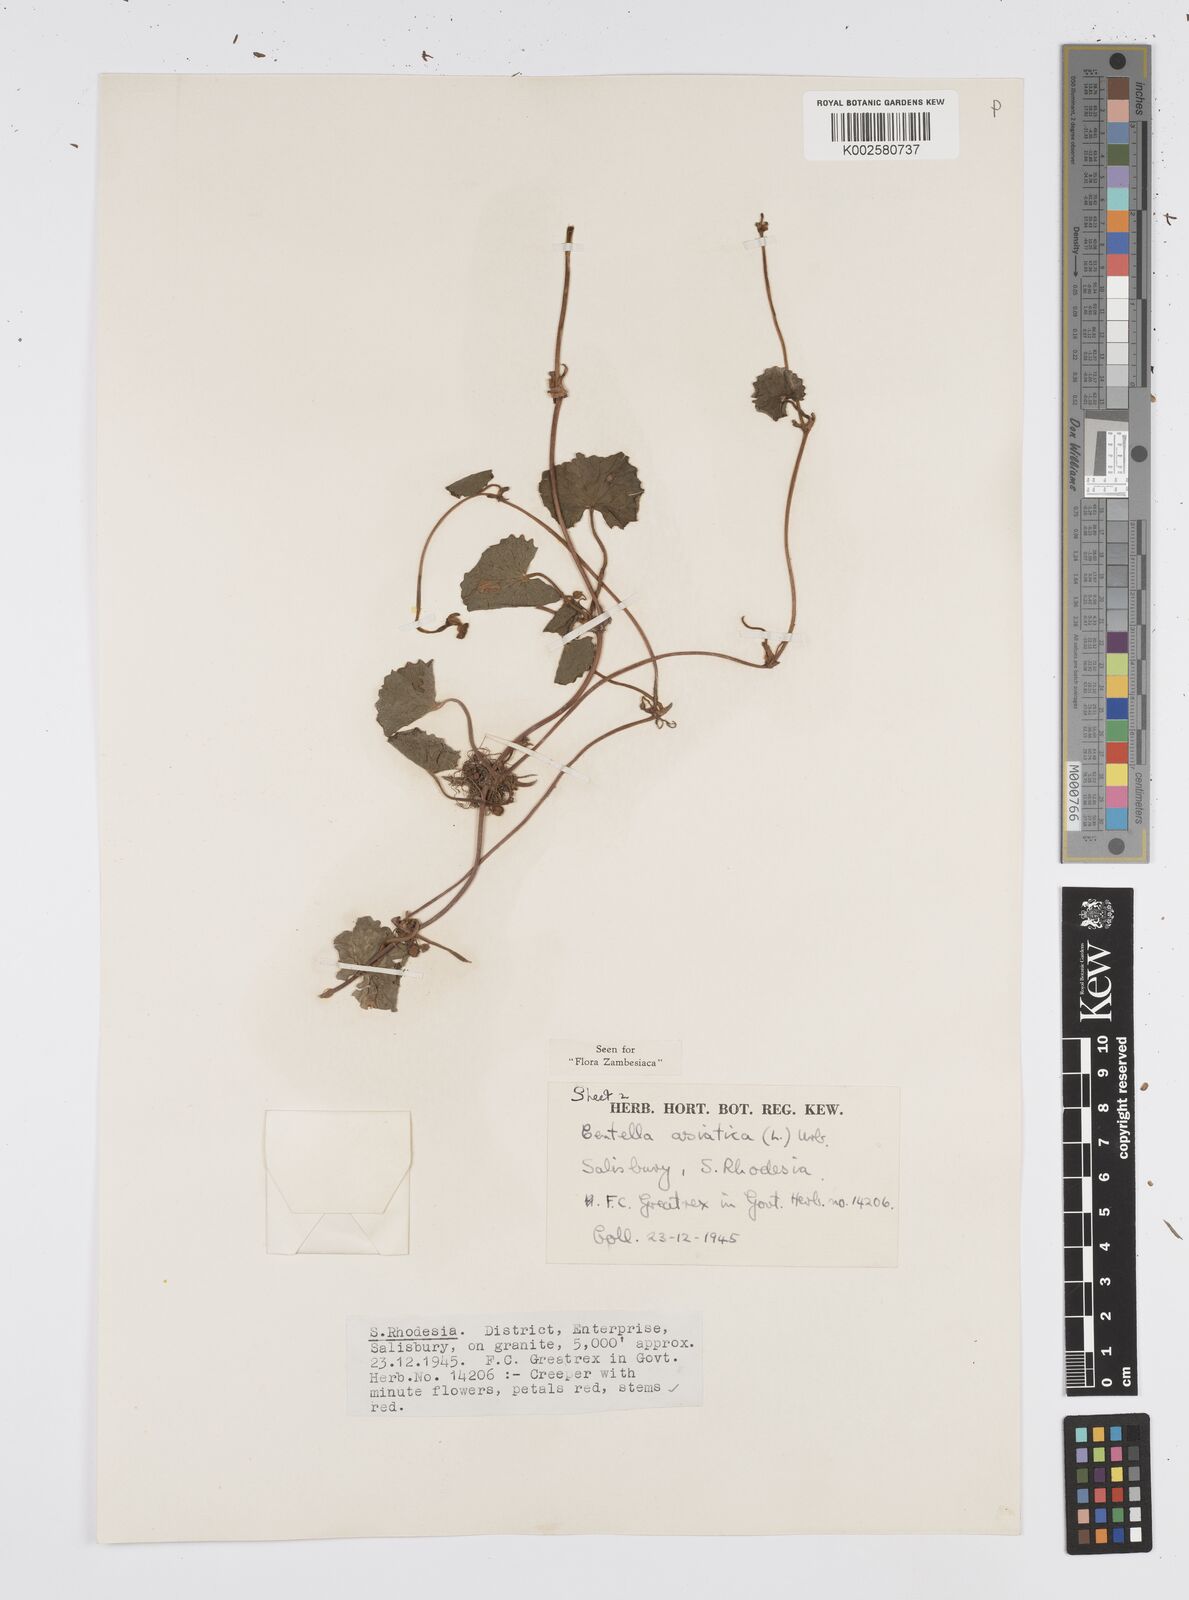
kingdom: Plantae
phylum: Tracheophyta
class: Magnoliopsida
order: Apiales
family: Apiaceae
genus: Centella
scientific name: Centella asiatica
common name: Spadeleaf
